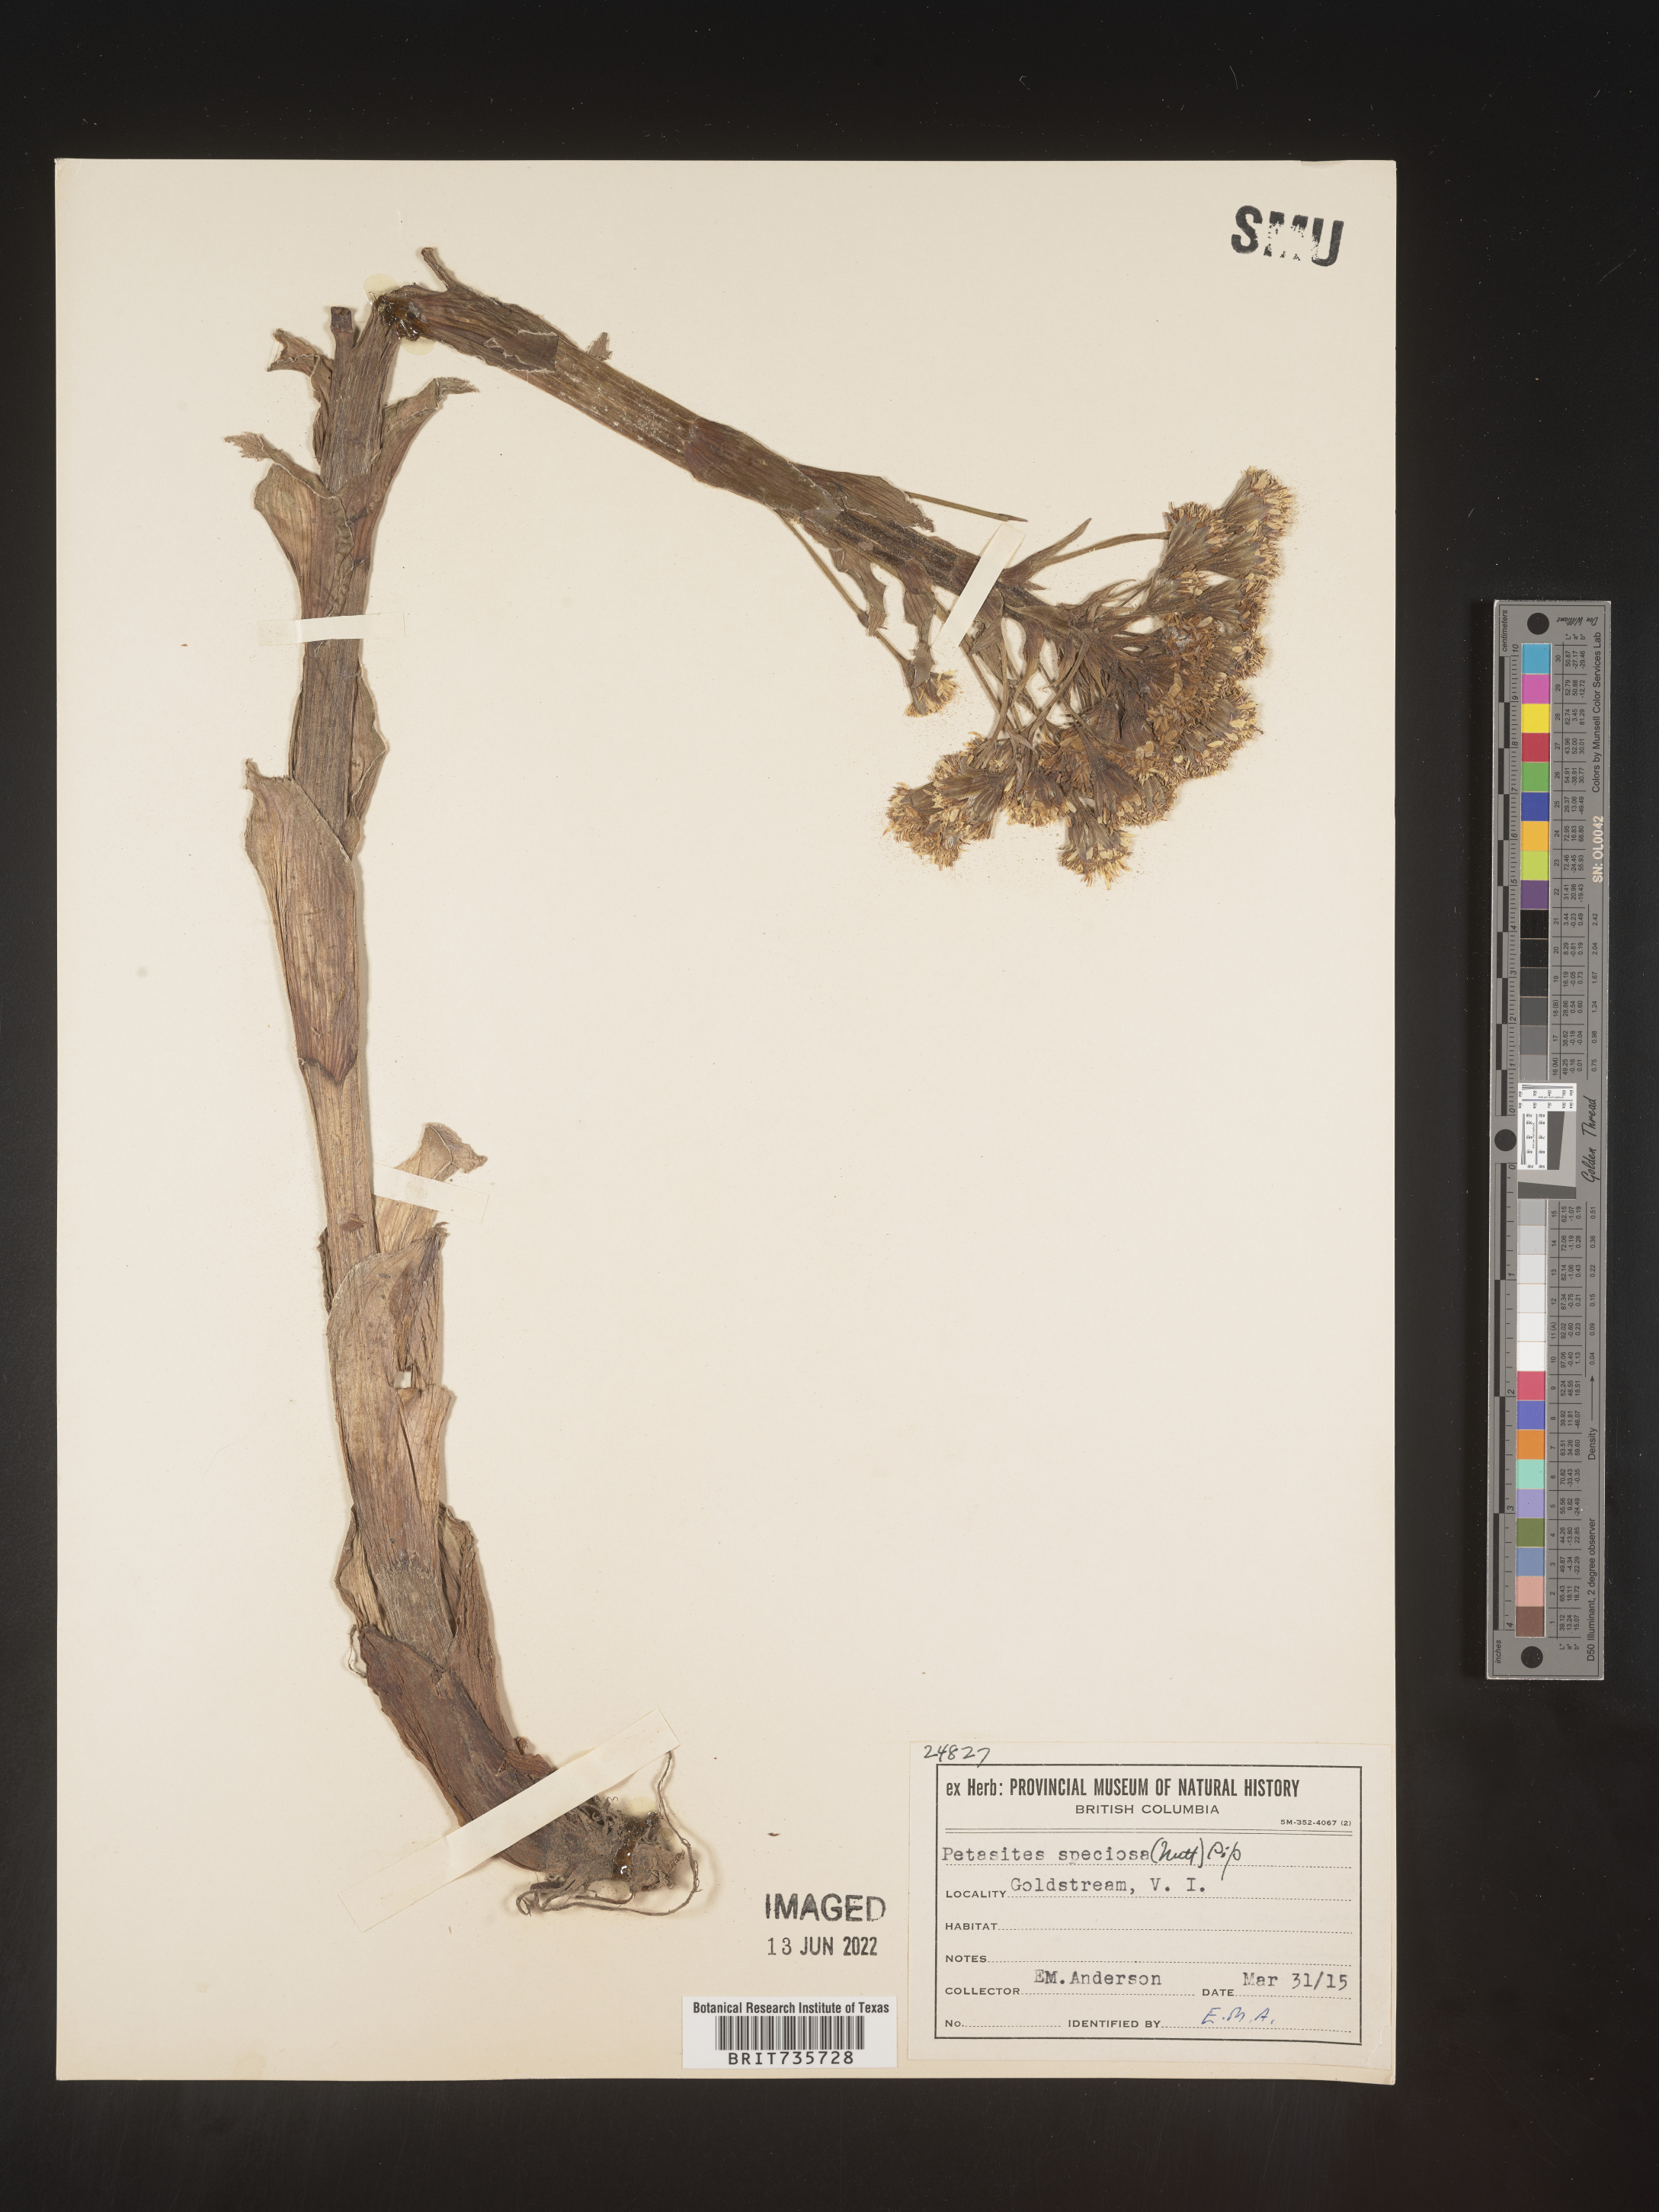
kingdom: Plantae
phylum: Tracheophyta
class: Magnoliopsida
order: Asterales
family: Asteraceae
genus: Petasites
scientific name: Petasites frigidus
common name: Arctic butterbur
